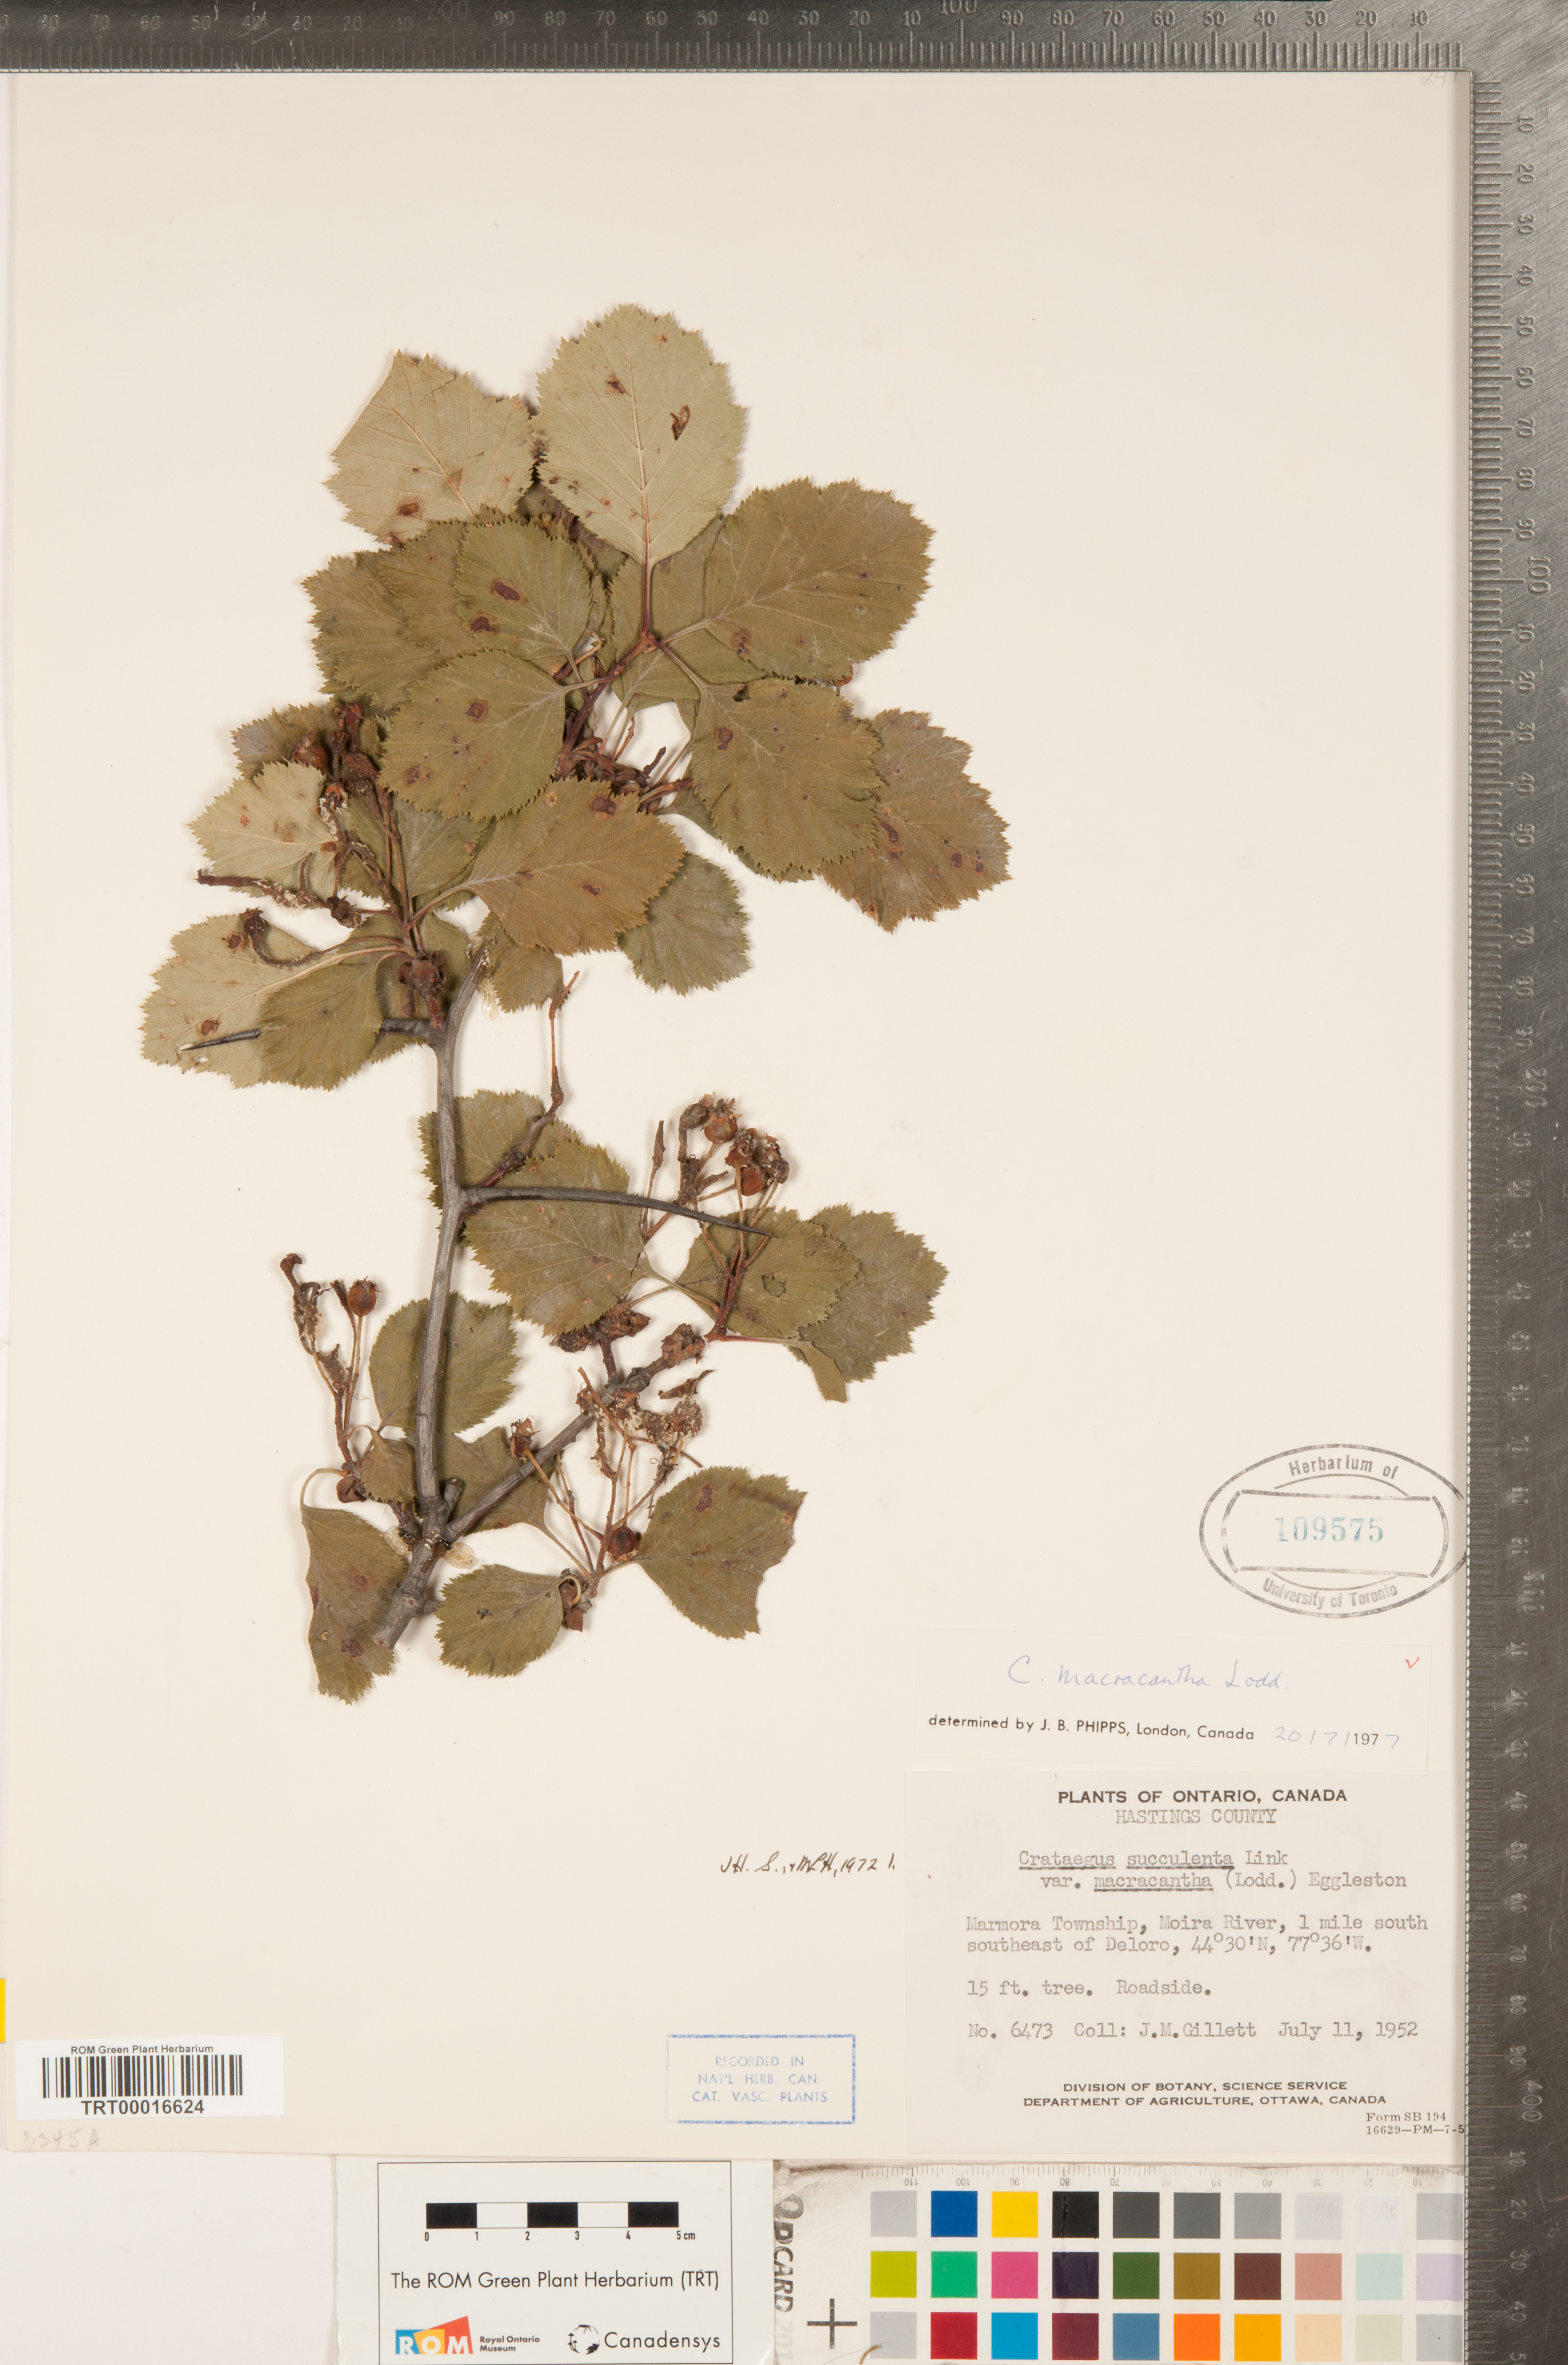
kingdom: Plantae
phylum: Tracheophyta
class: Magnoliopsida
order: Rosales
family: Rosaceae
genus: Crataegus
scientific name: Crataegus macracantha
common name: Large-thorn hawthorn
